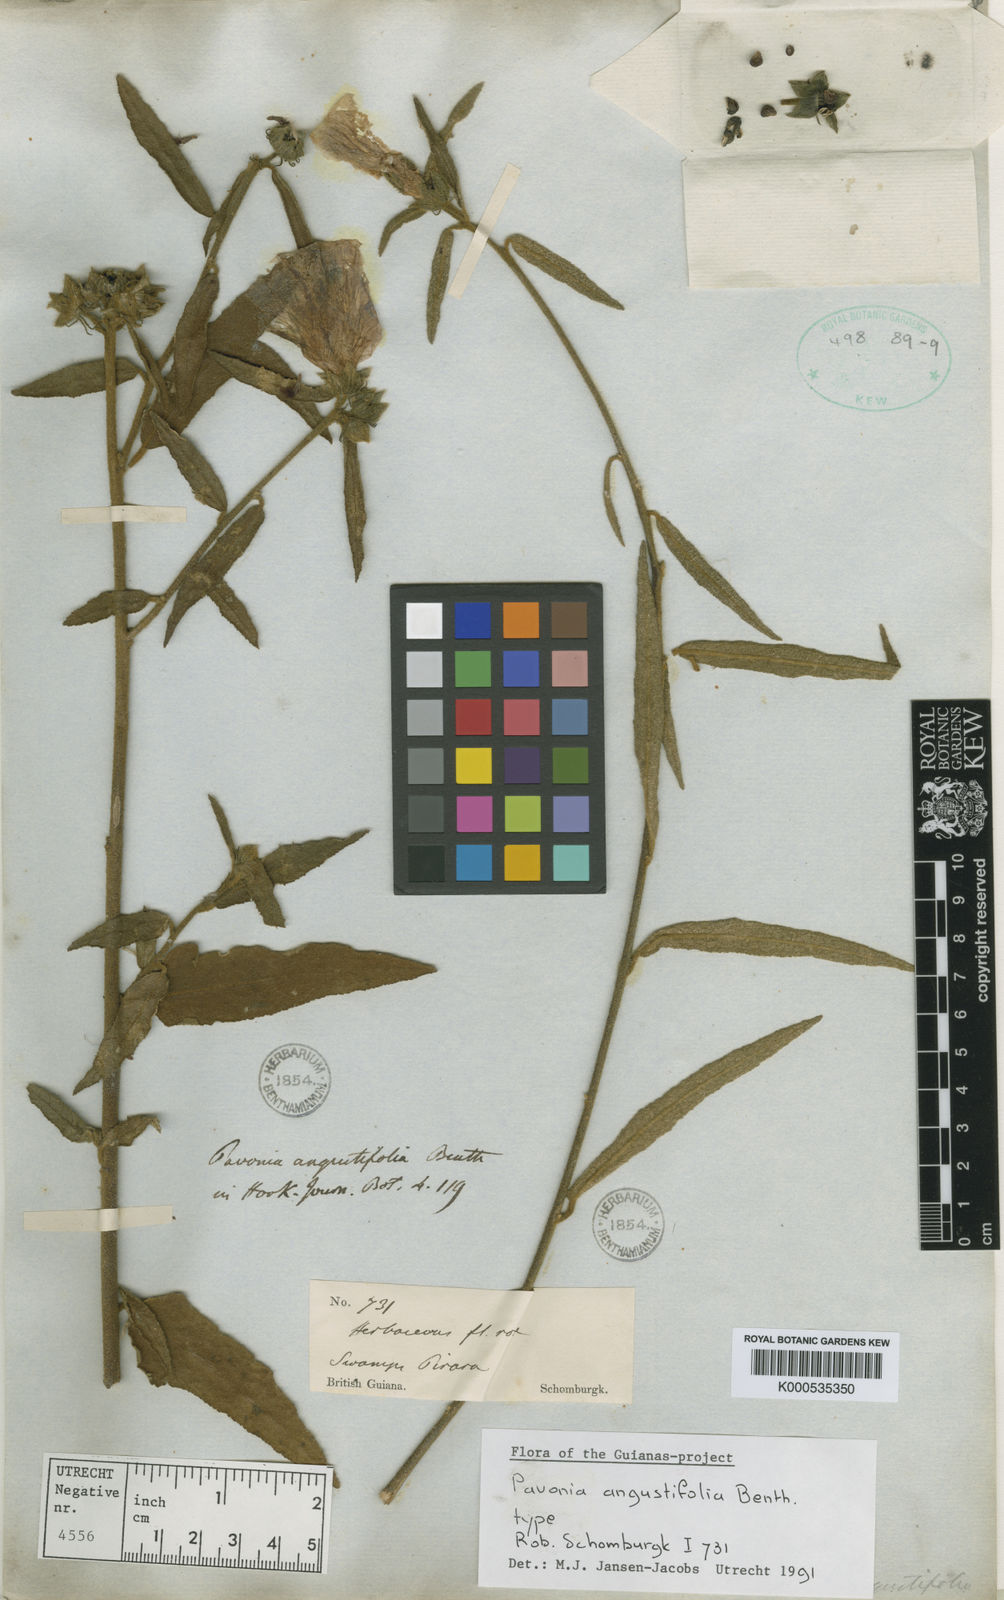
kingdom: Plantae
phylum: Tracheophyta
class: Magnoliopsida
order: Malvales
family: Malvaceae
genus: Pavonia
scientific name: Pavonia angustifolia
